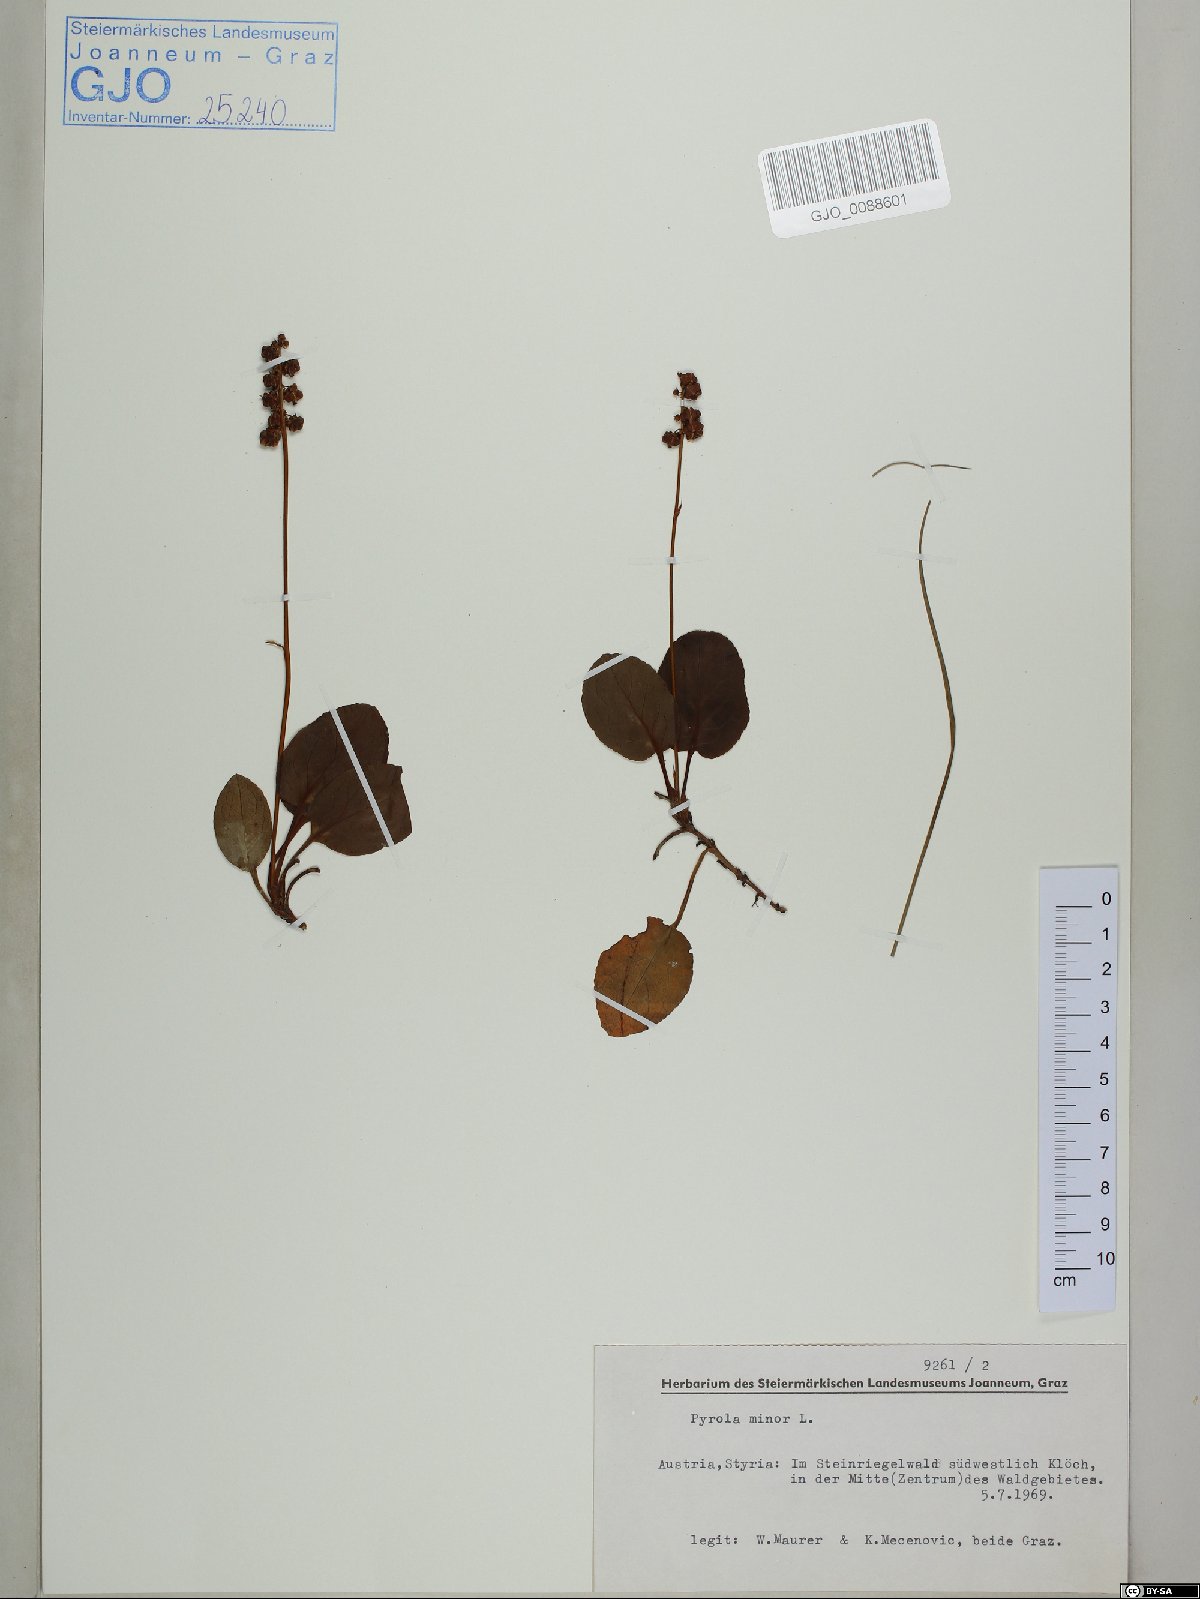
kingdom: Plantae
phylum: Tracheophyta
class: Magnoliopsida
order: Ericales
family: Ericaceae
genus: Pyrola
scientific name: Pyrola minor
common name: Common wintergreen
